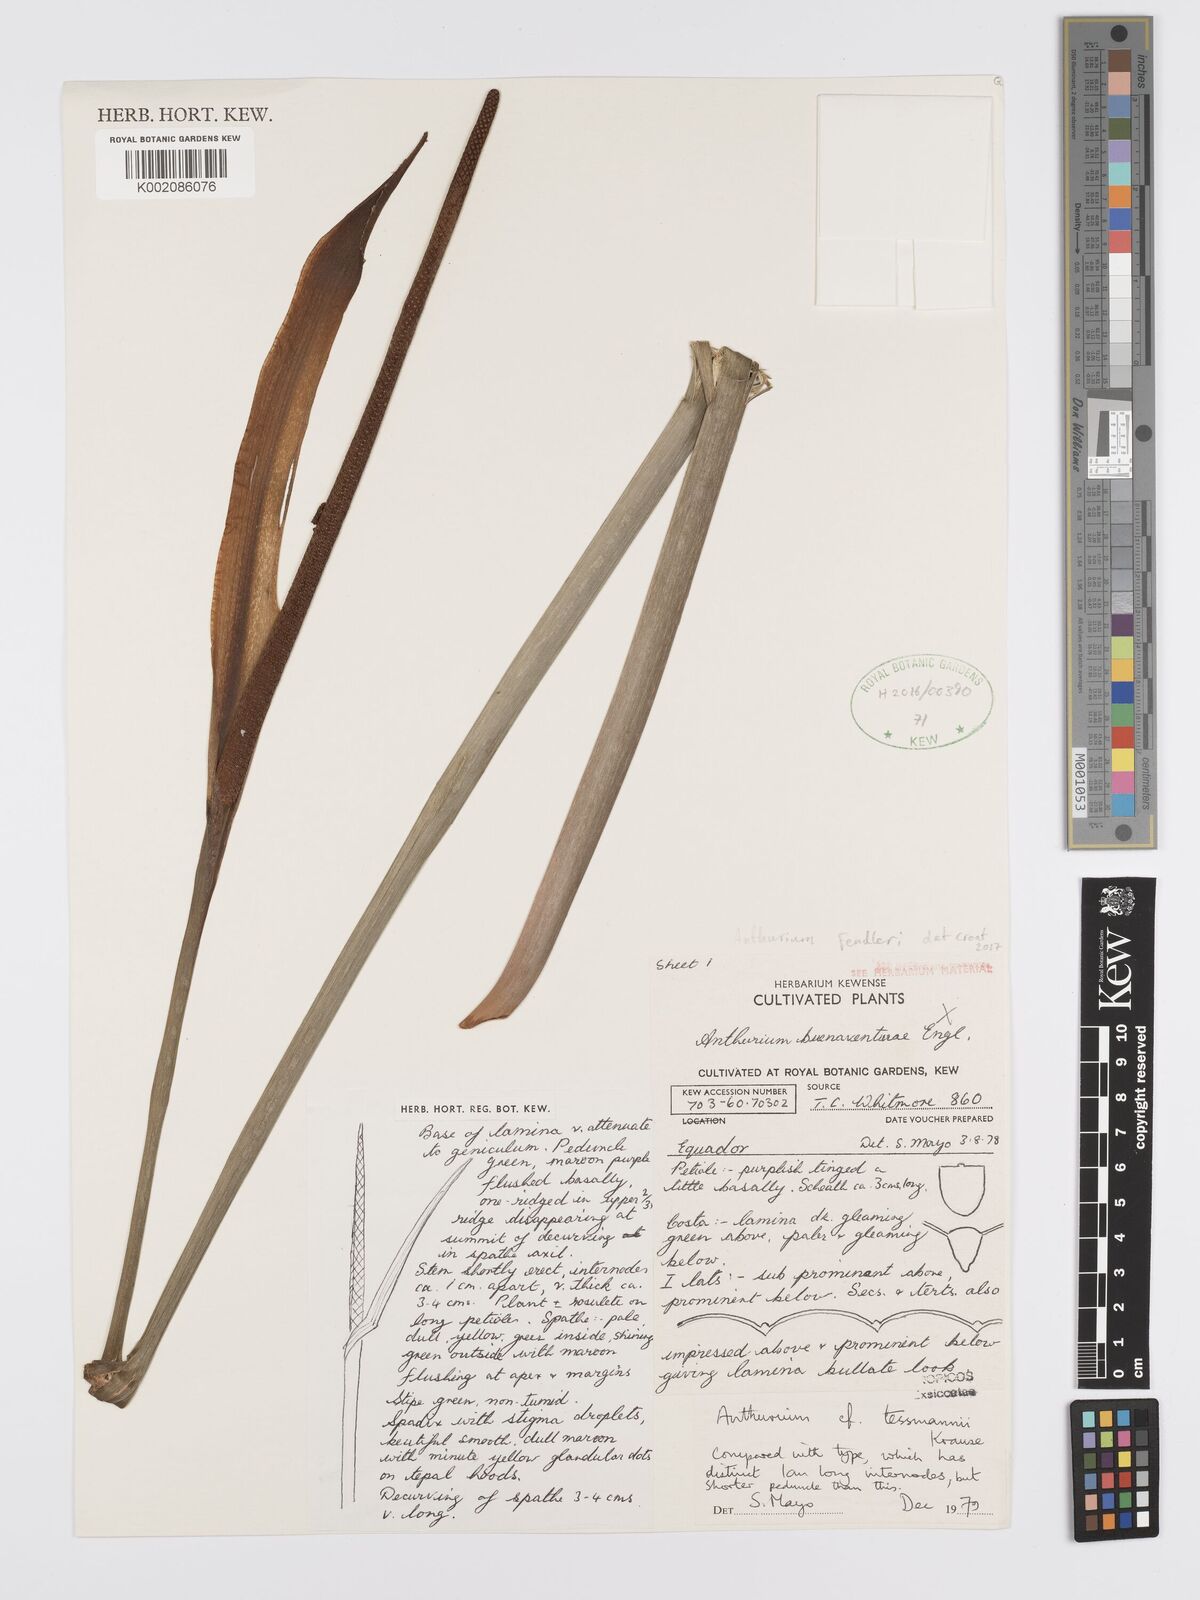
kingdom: Plantae
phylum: Tracheophyta
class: Liliopsida
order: Alismatales
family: Araceae
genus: Anthurium
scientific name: Anthurium fendleri
